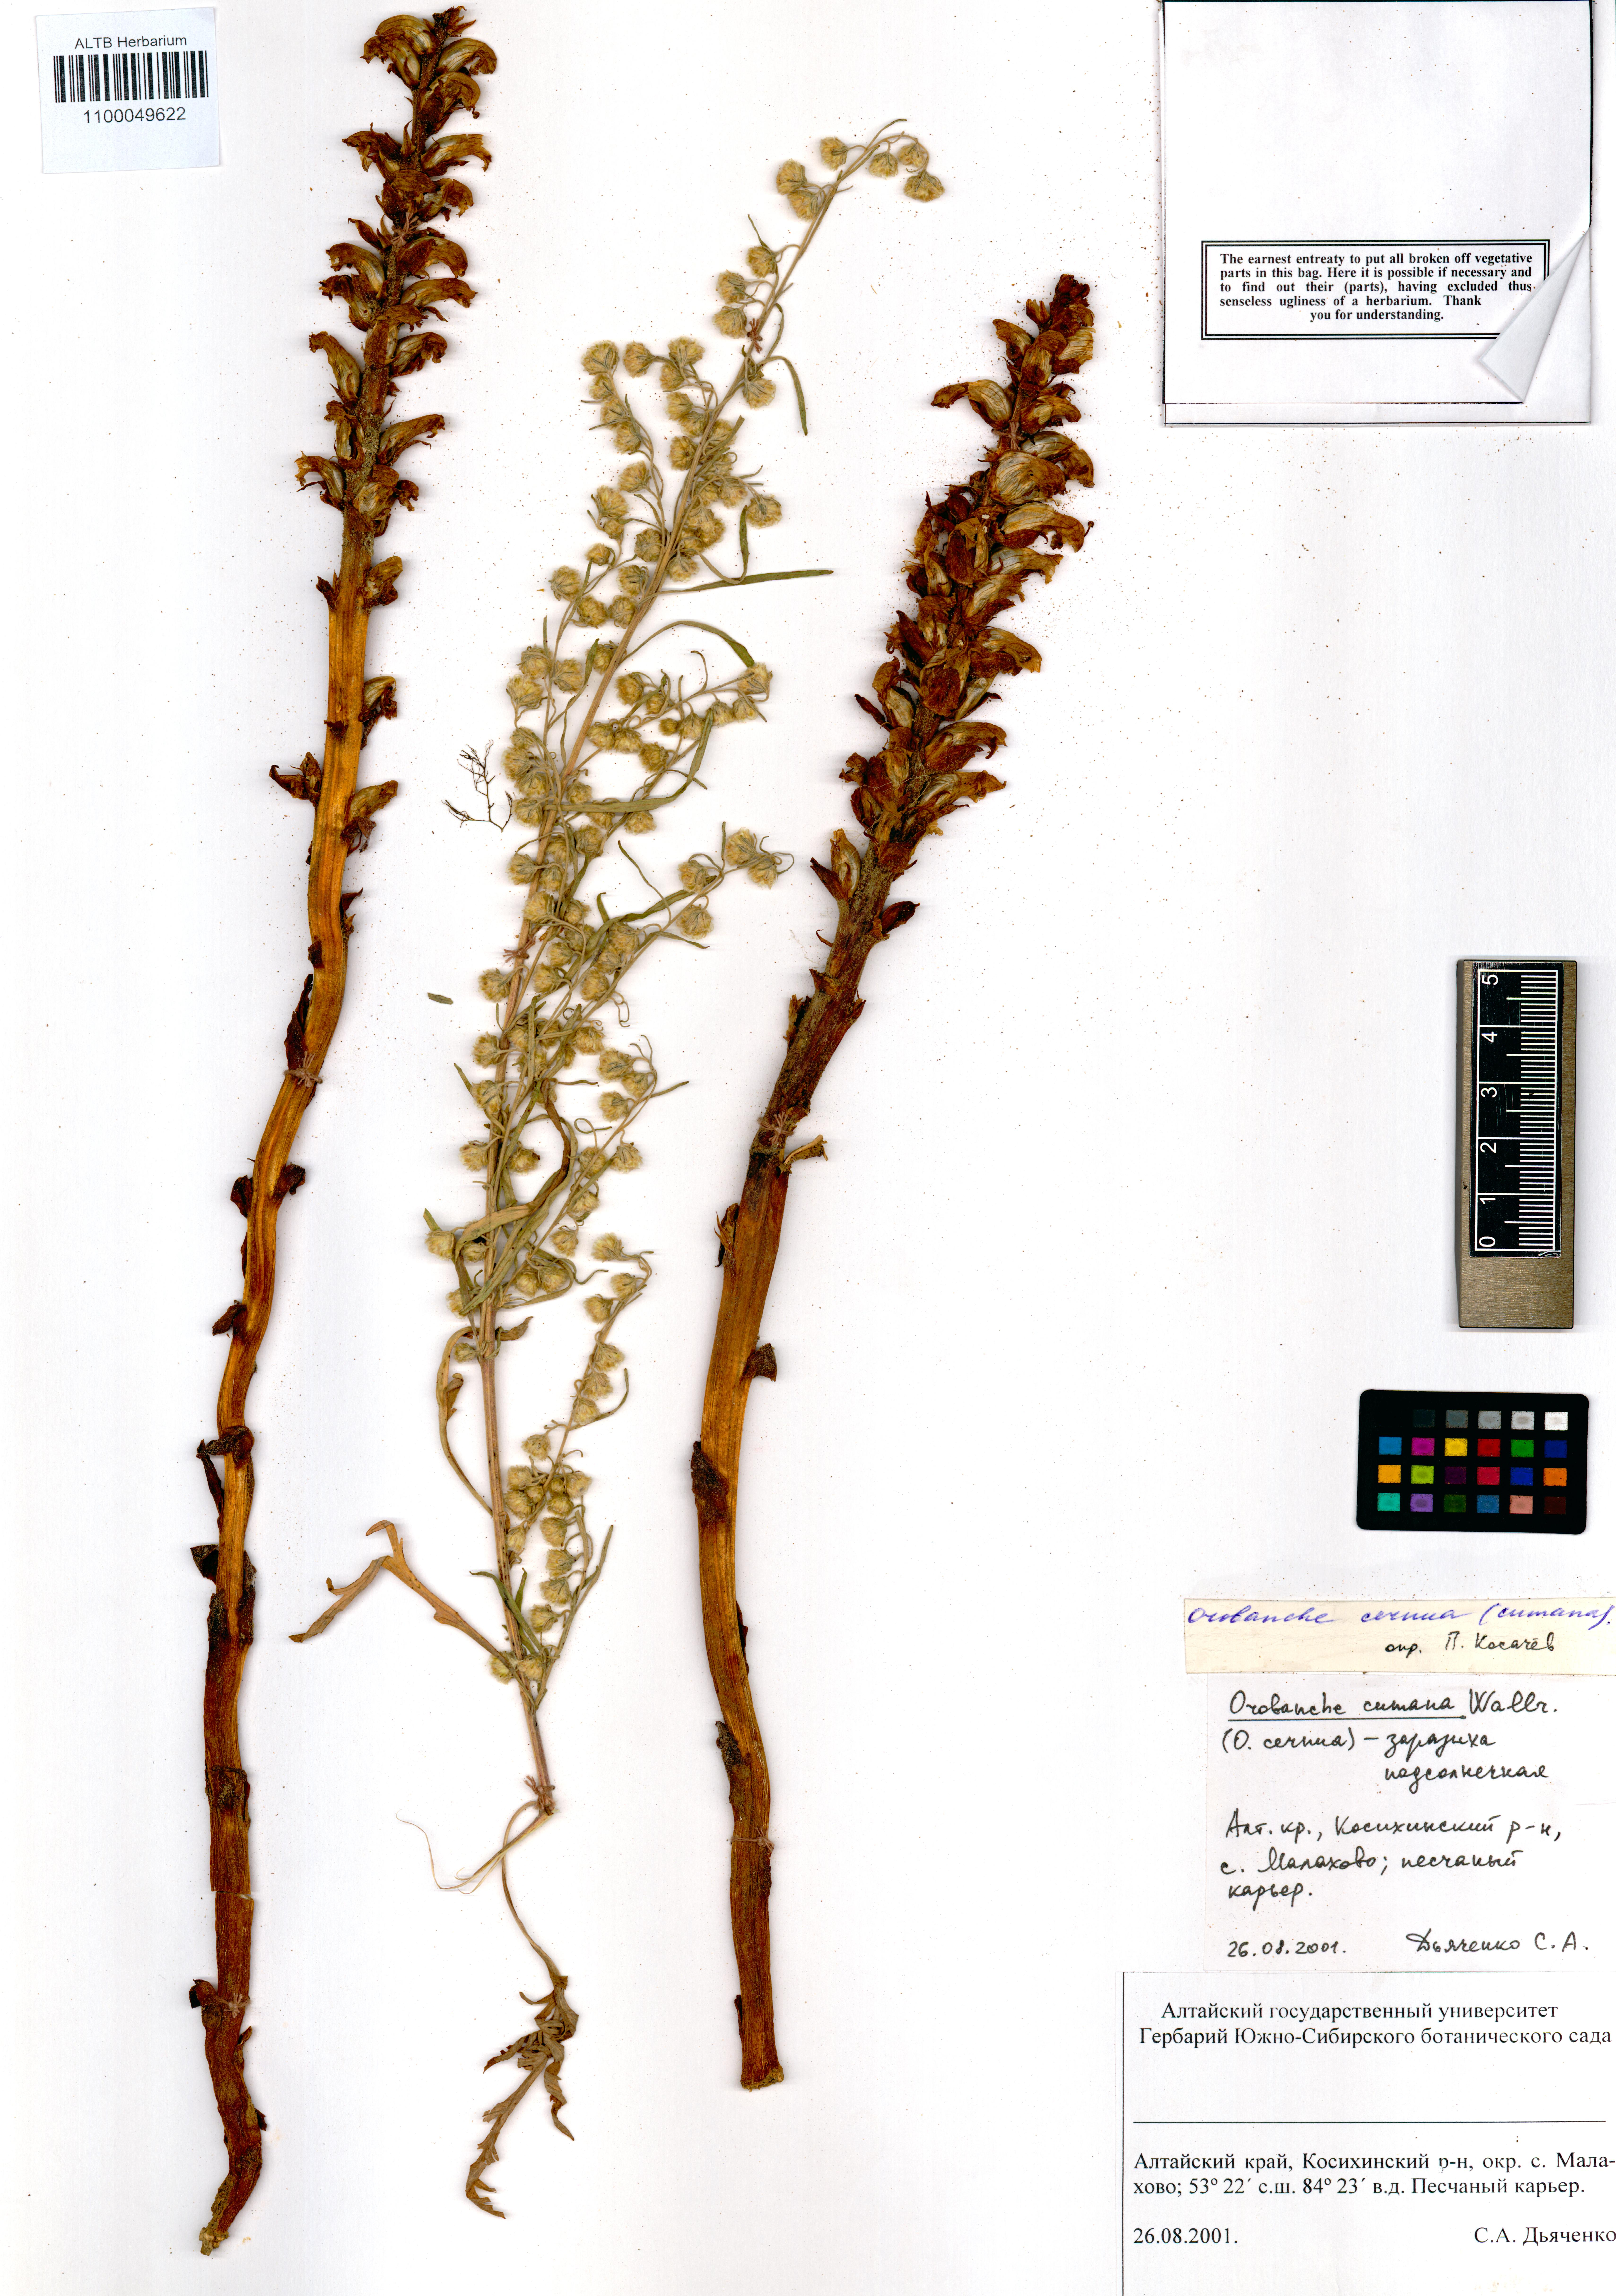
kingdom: Plantae
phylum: Tracheophyta
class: Magnoliopsida
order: Lamiales
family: Orobanchaceae
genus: Orobanche
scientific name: Orobanche cernua
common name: Australian broomrape
